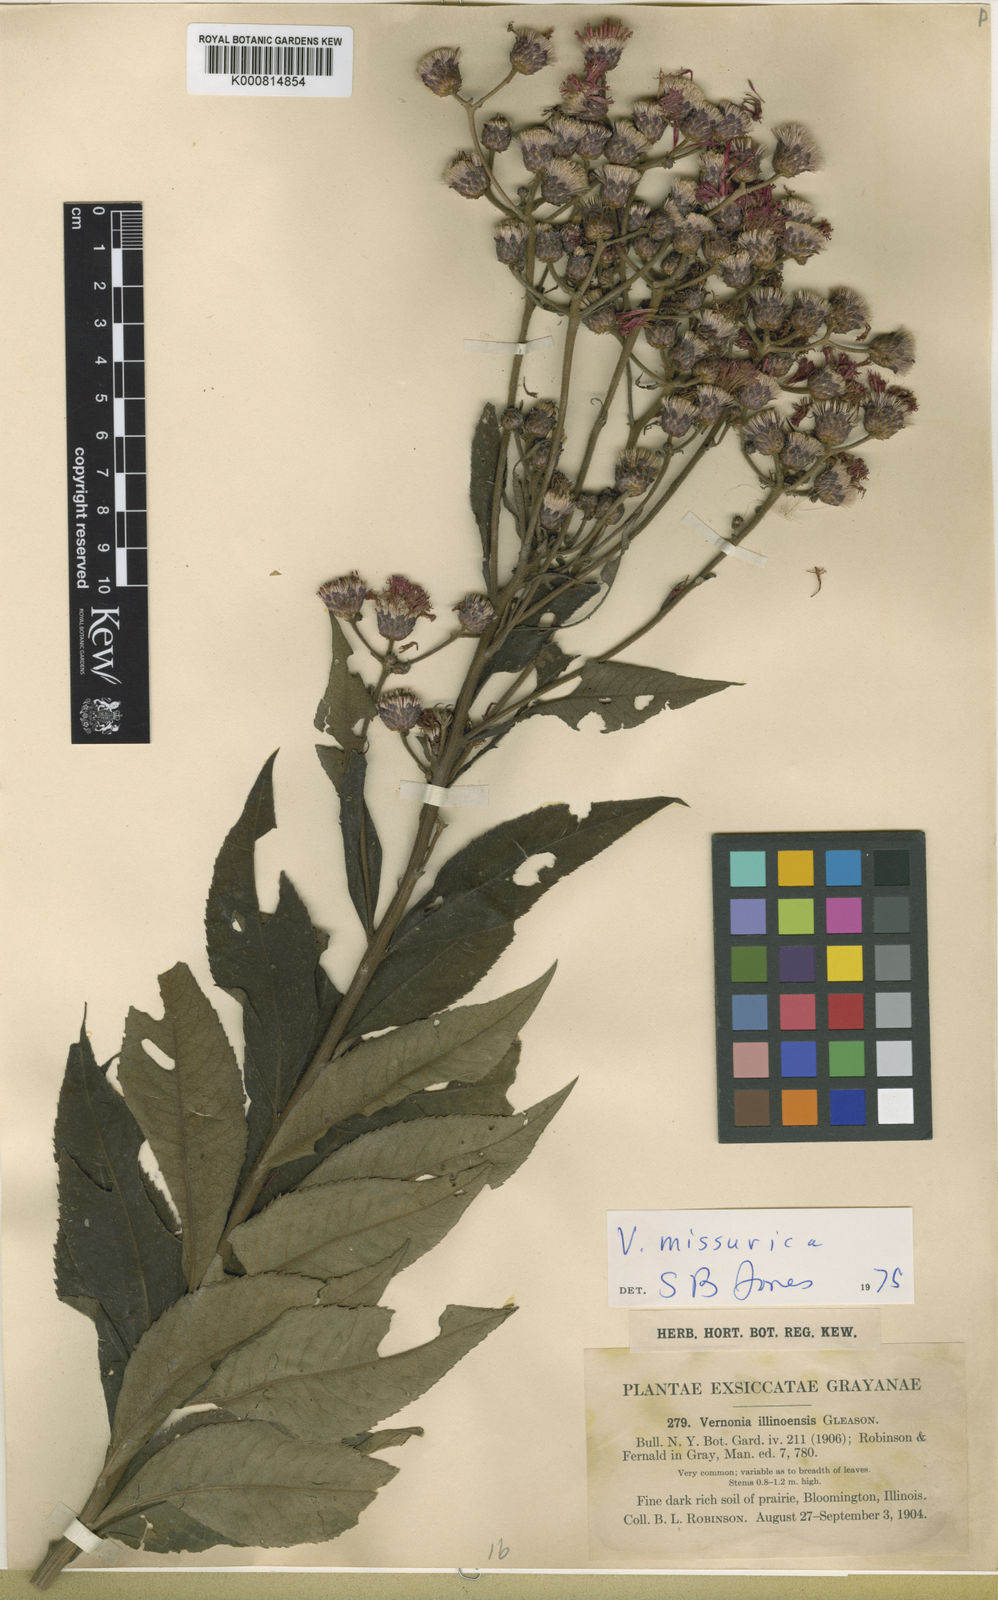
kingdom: Plantae
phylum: Tracheophyta
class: Magnoliopsida
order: Asterales
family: Asteraceae
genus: Vernonia
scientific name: Vernonia missurica
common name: Missouri ironweed
